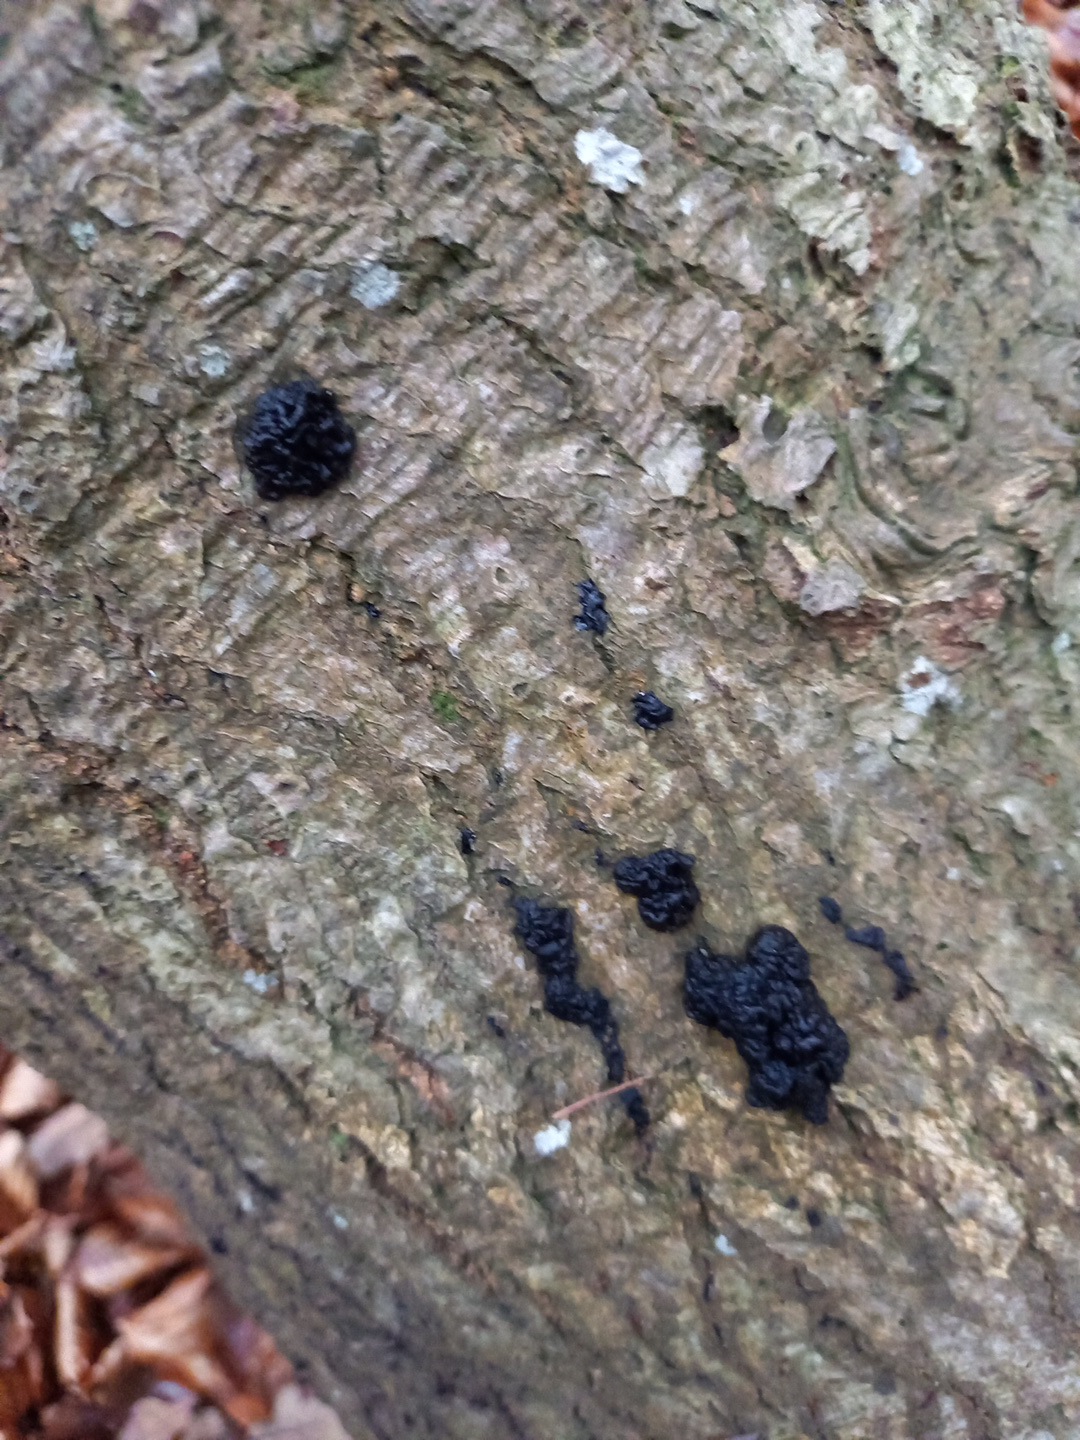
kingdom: Fungi
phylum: Basidiomycota
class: Agaricomycetes
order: Auriculariales
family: Auriculariaceae
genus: Exidia
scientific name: Exidia nigricans
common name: almindelig bævretop
